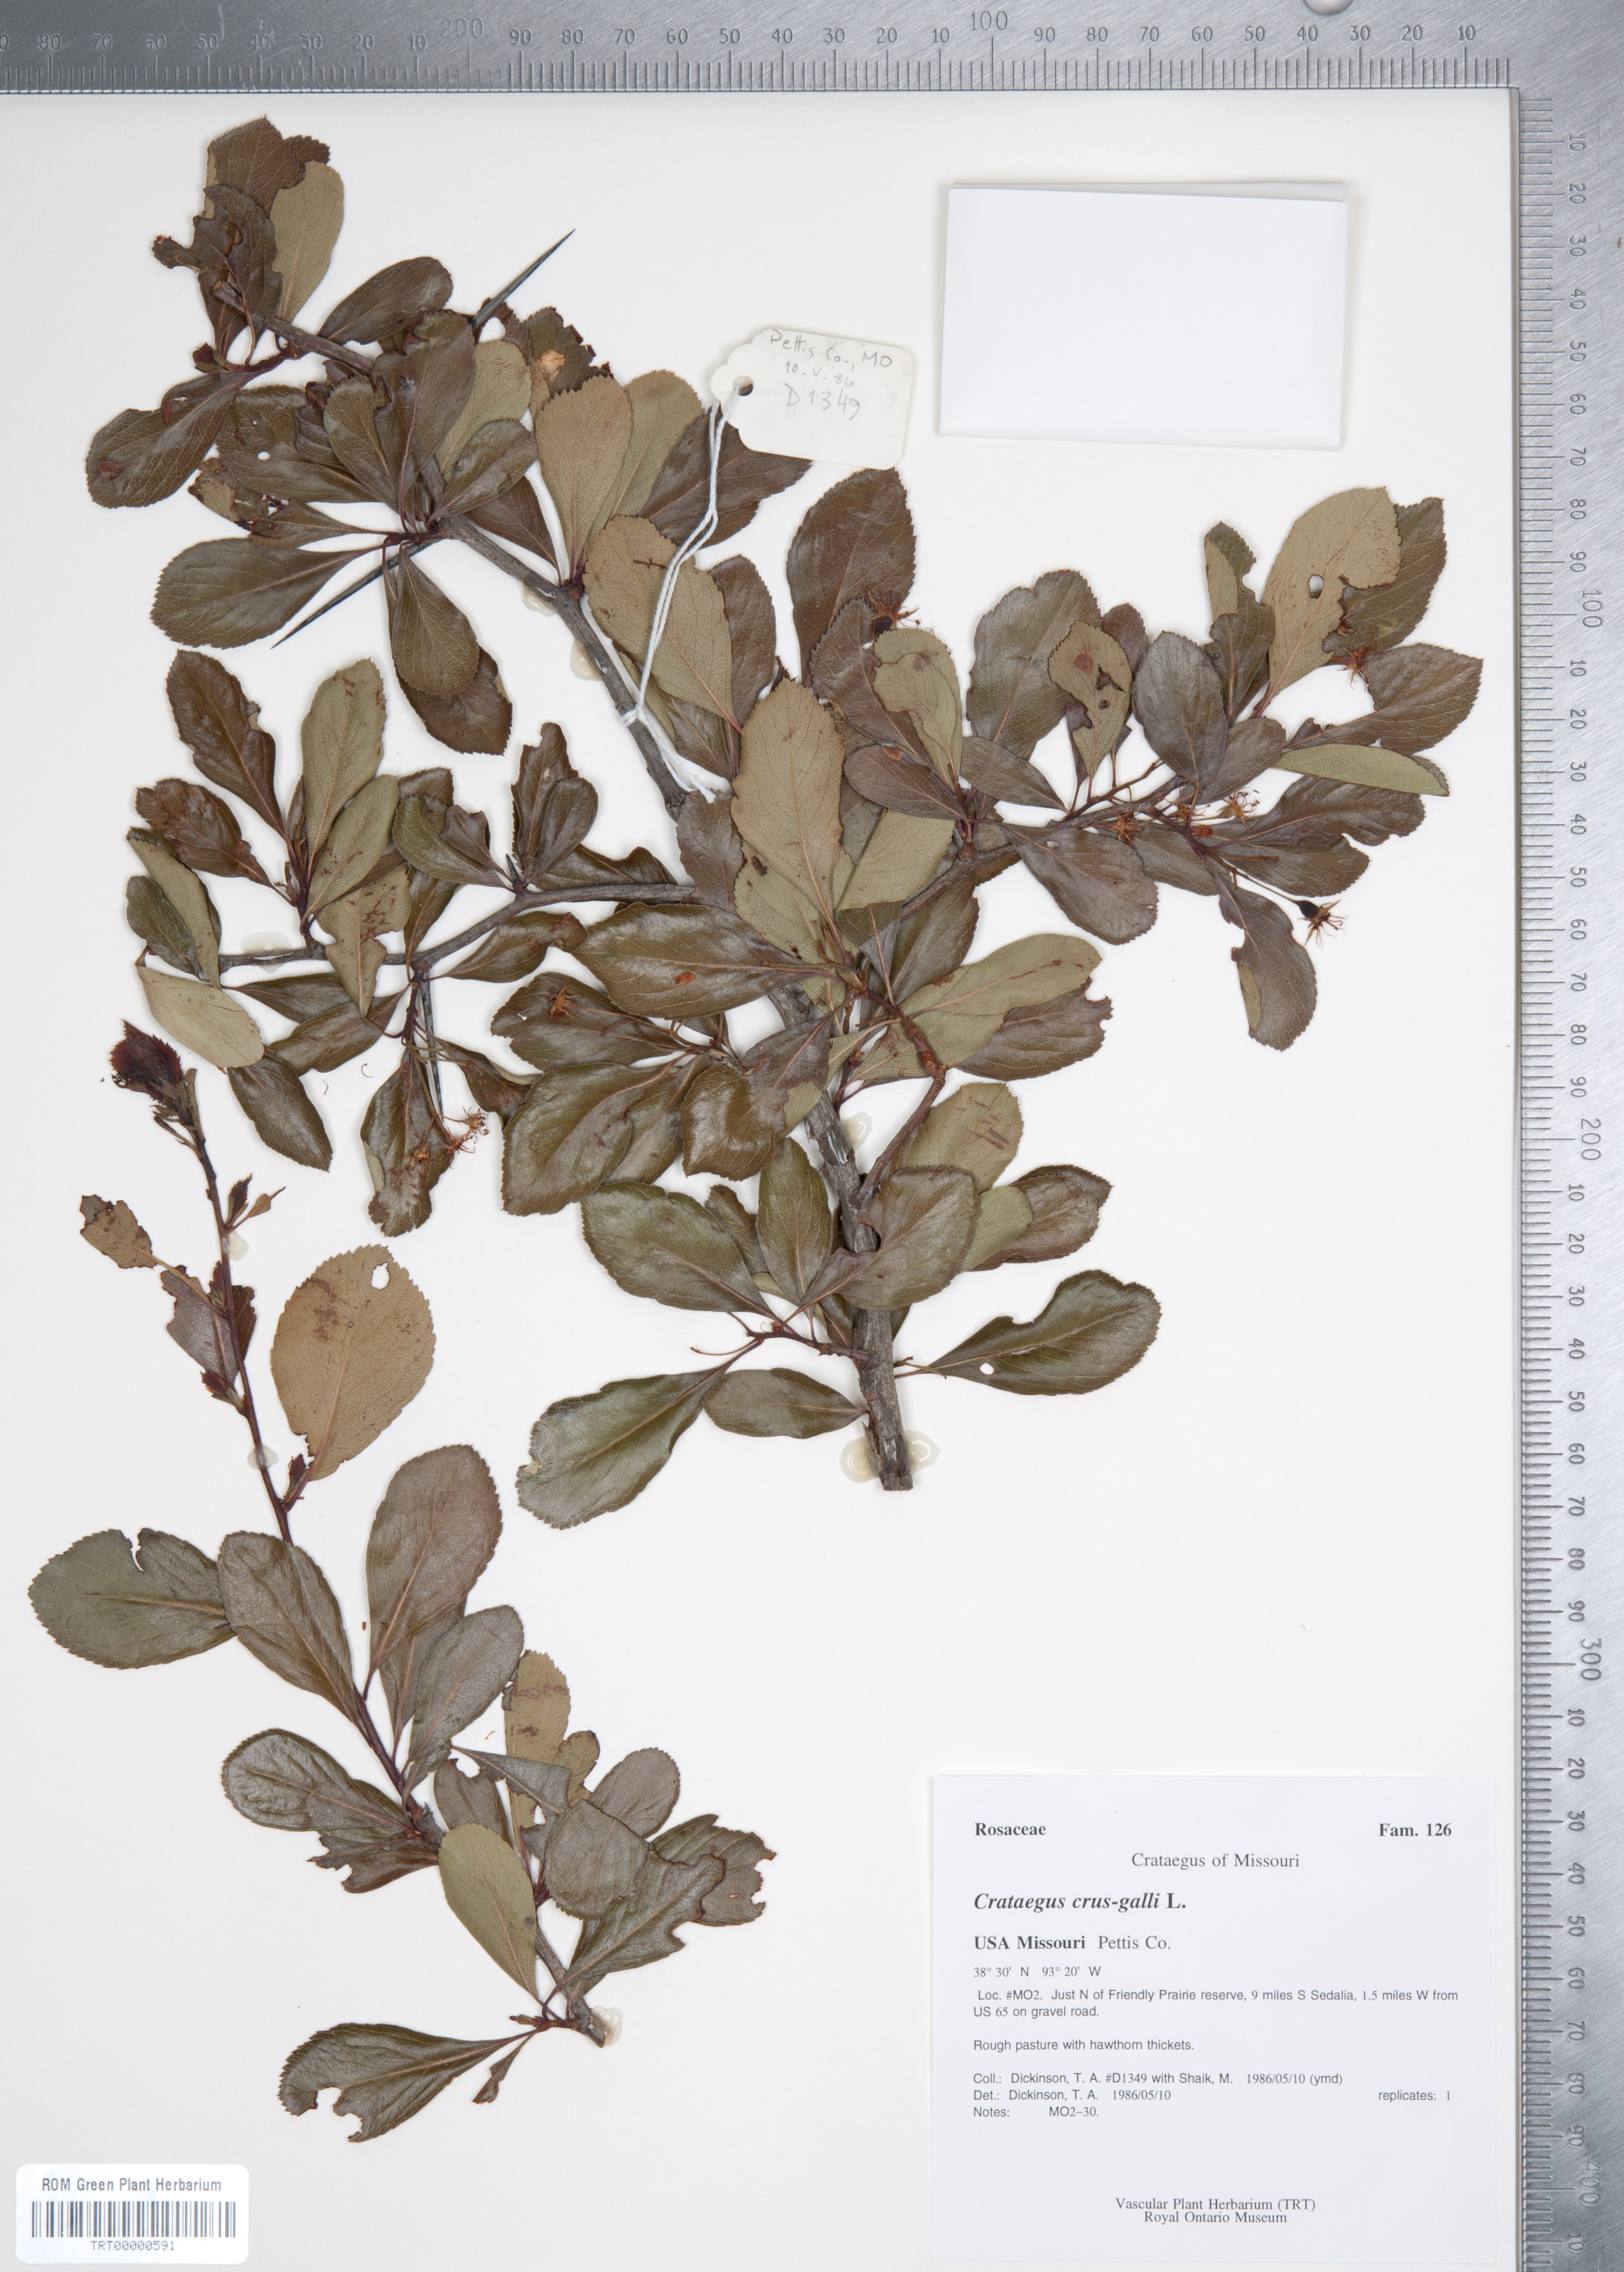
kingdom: Plantae
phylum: Tracheophyta
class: Magnoliopsida
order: Rosales
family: Rosaceae
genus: Crataegus
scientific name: Crataegus crus-galli
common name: Cockspurthorn
